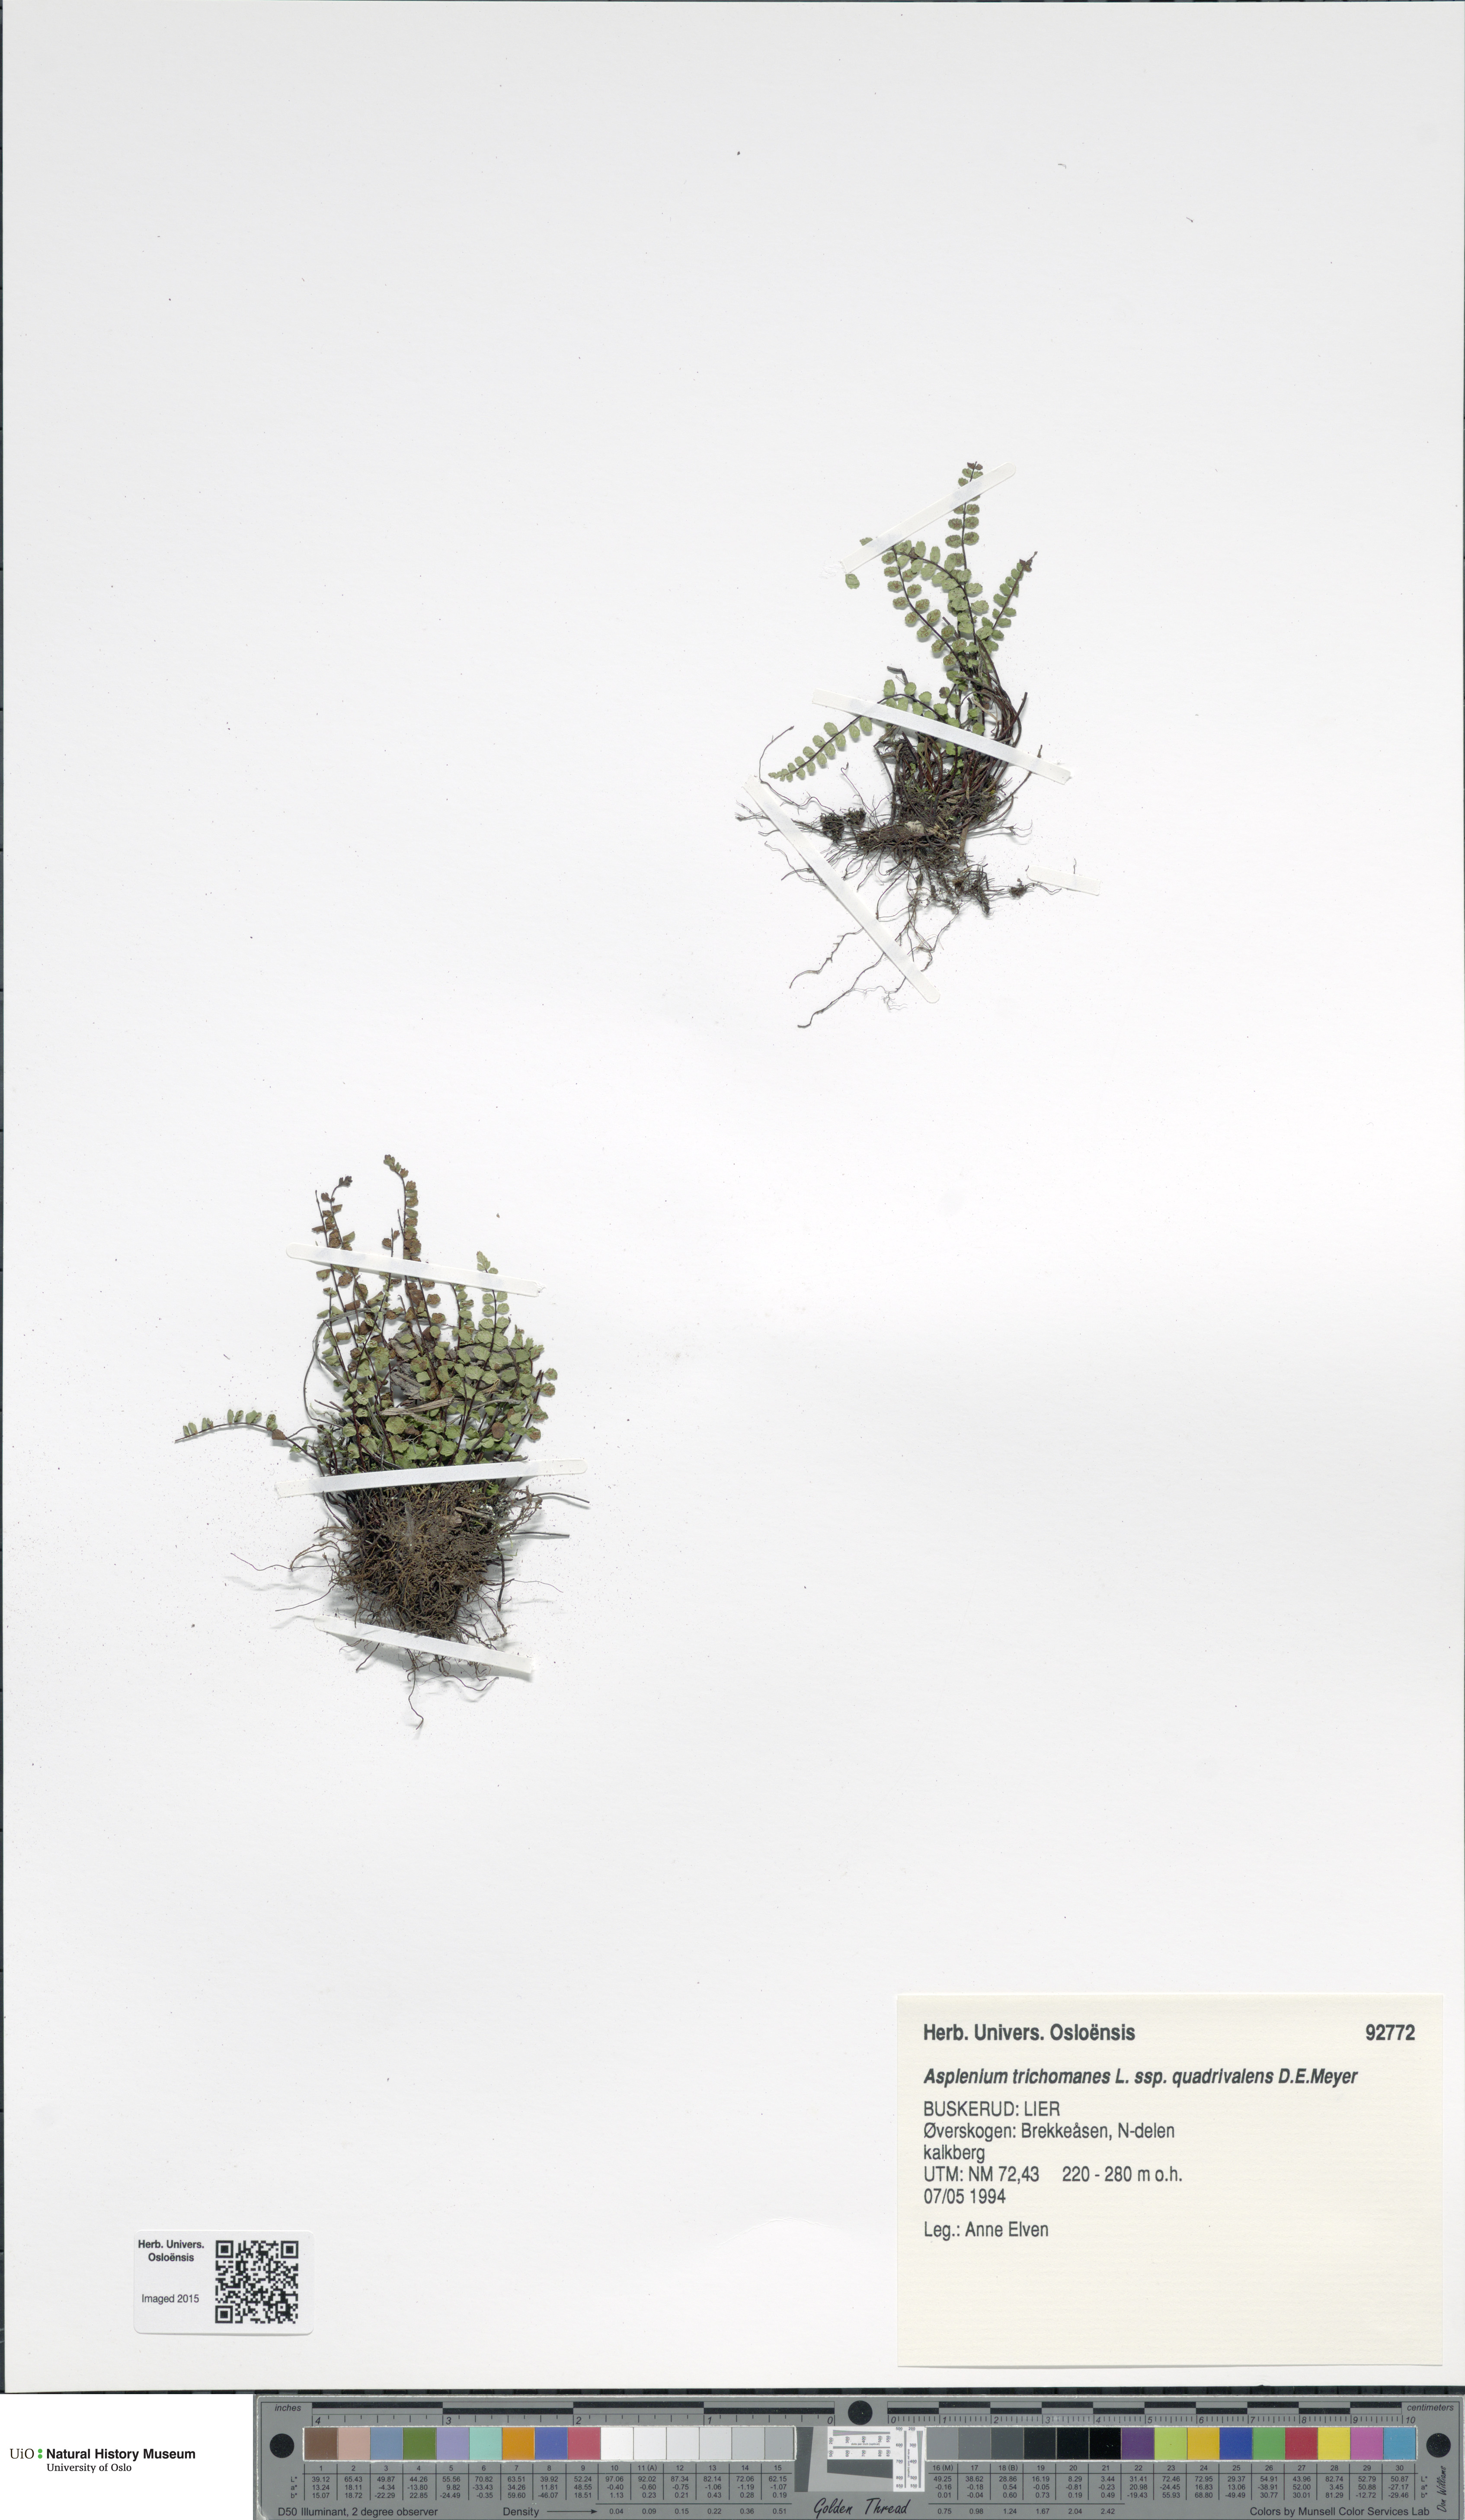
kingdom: Plantae
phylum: Tracheophyta
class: Polypodiopsida
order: Polypodiales
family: Aspleniaceae
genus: Asplenium
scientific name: Asplenium quadrivalens
